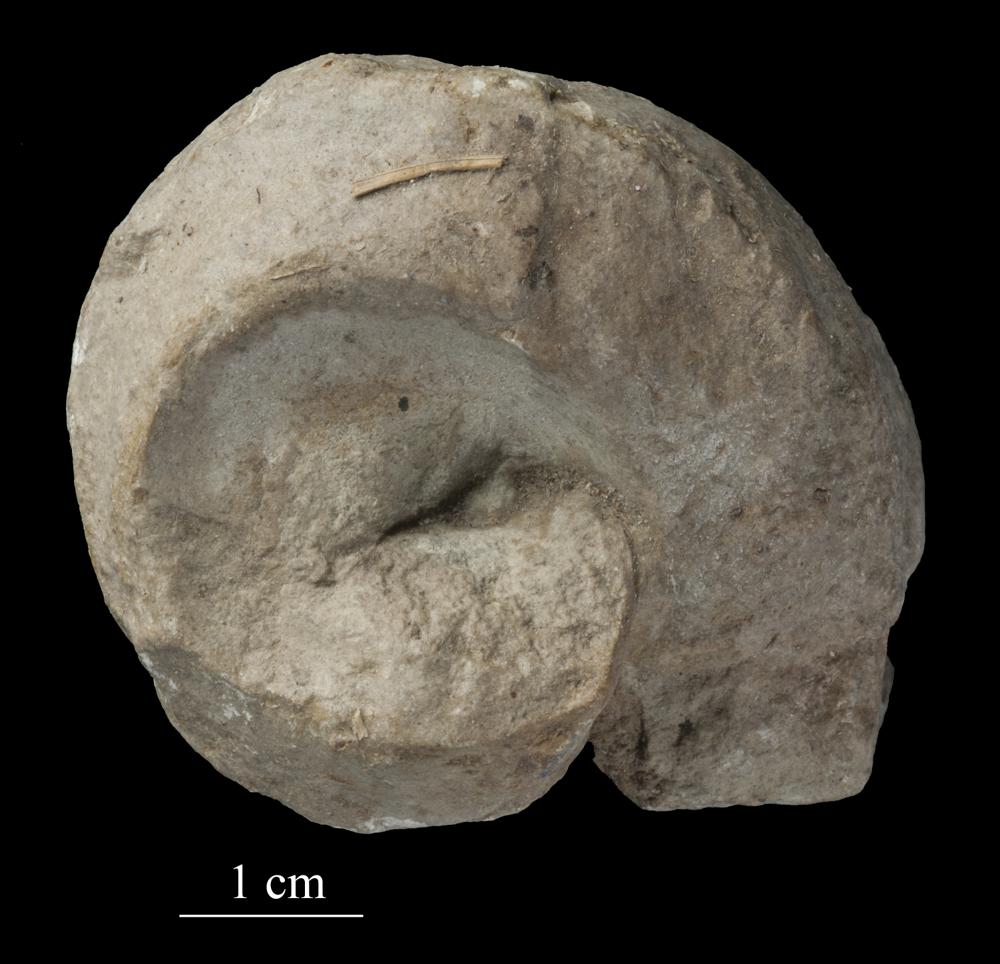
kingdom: Animalia
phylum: Mollusca
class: Gastropoda
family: Lophospiridae
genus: Lophospira
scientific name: Lophospira lyckholmiensis
